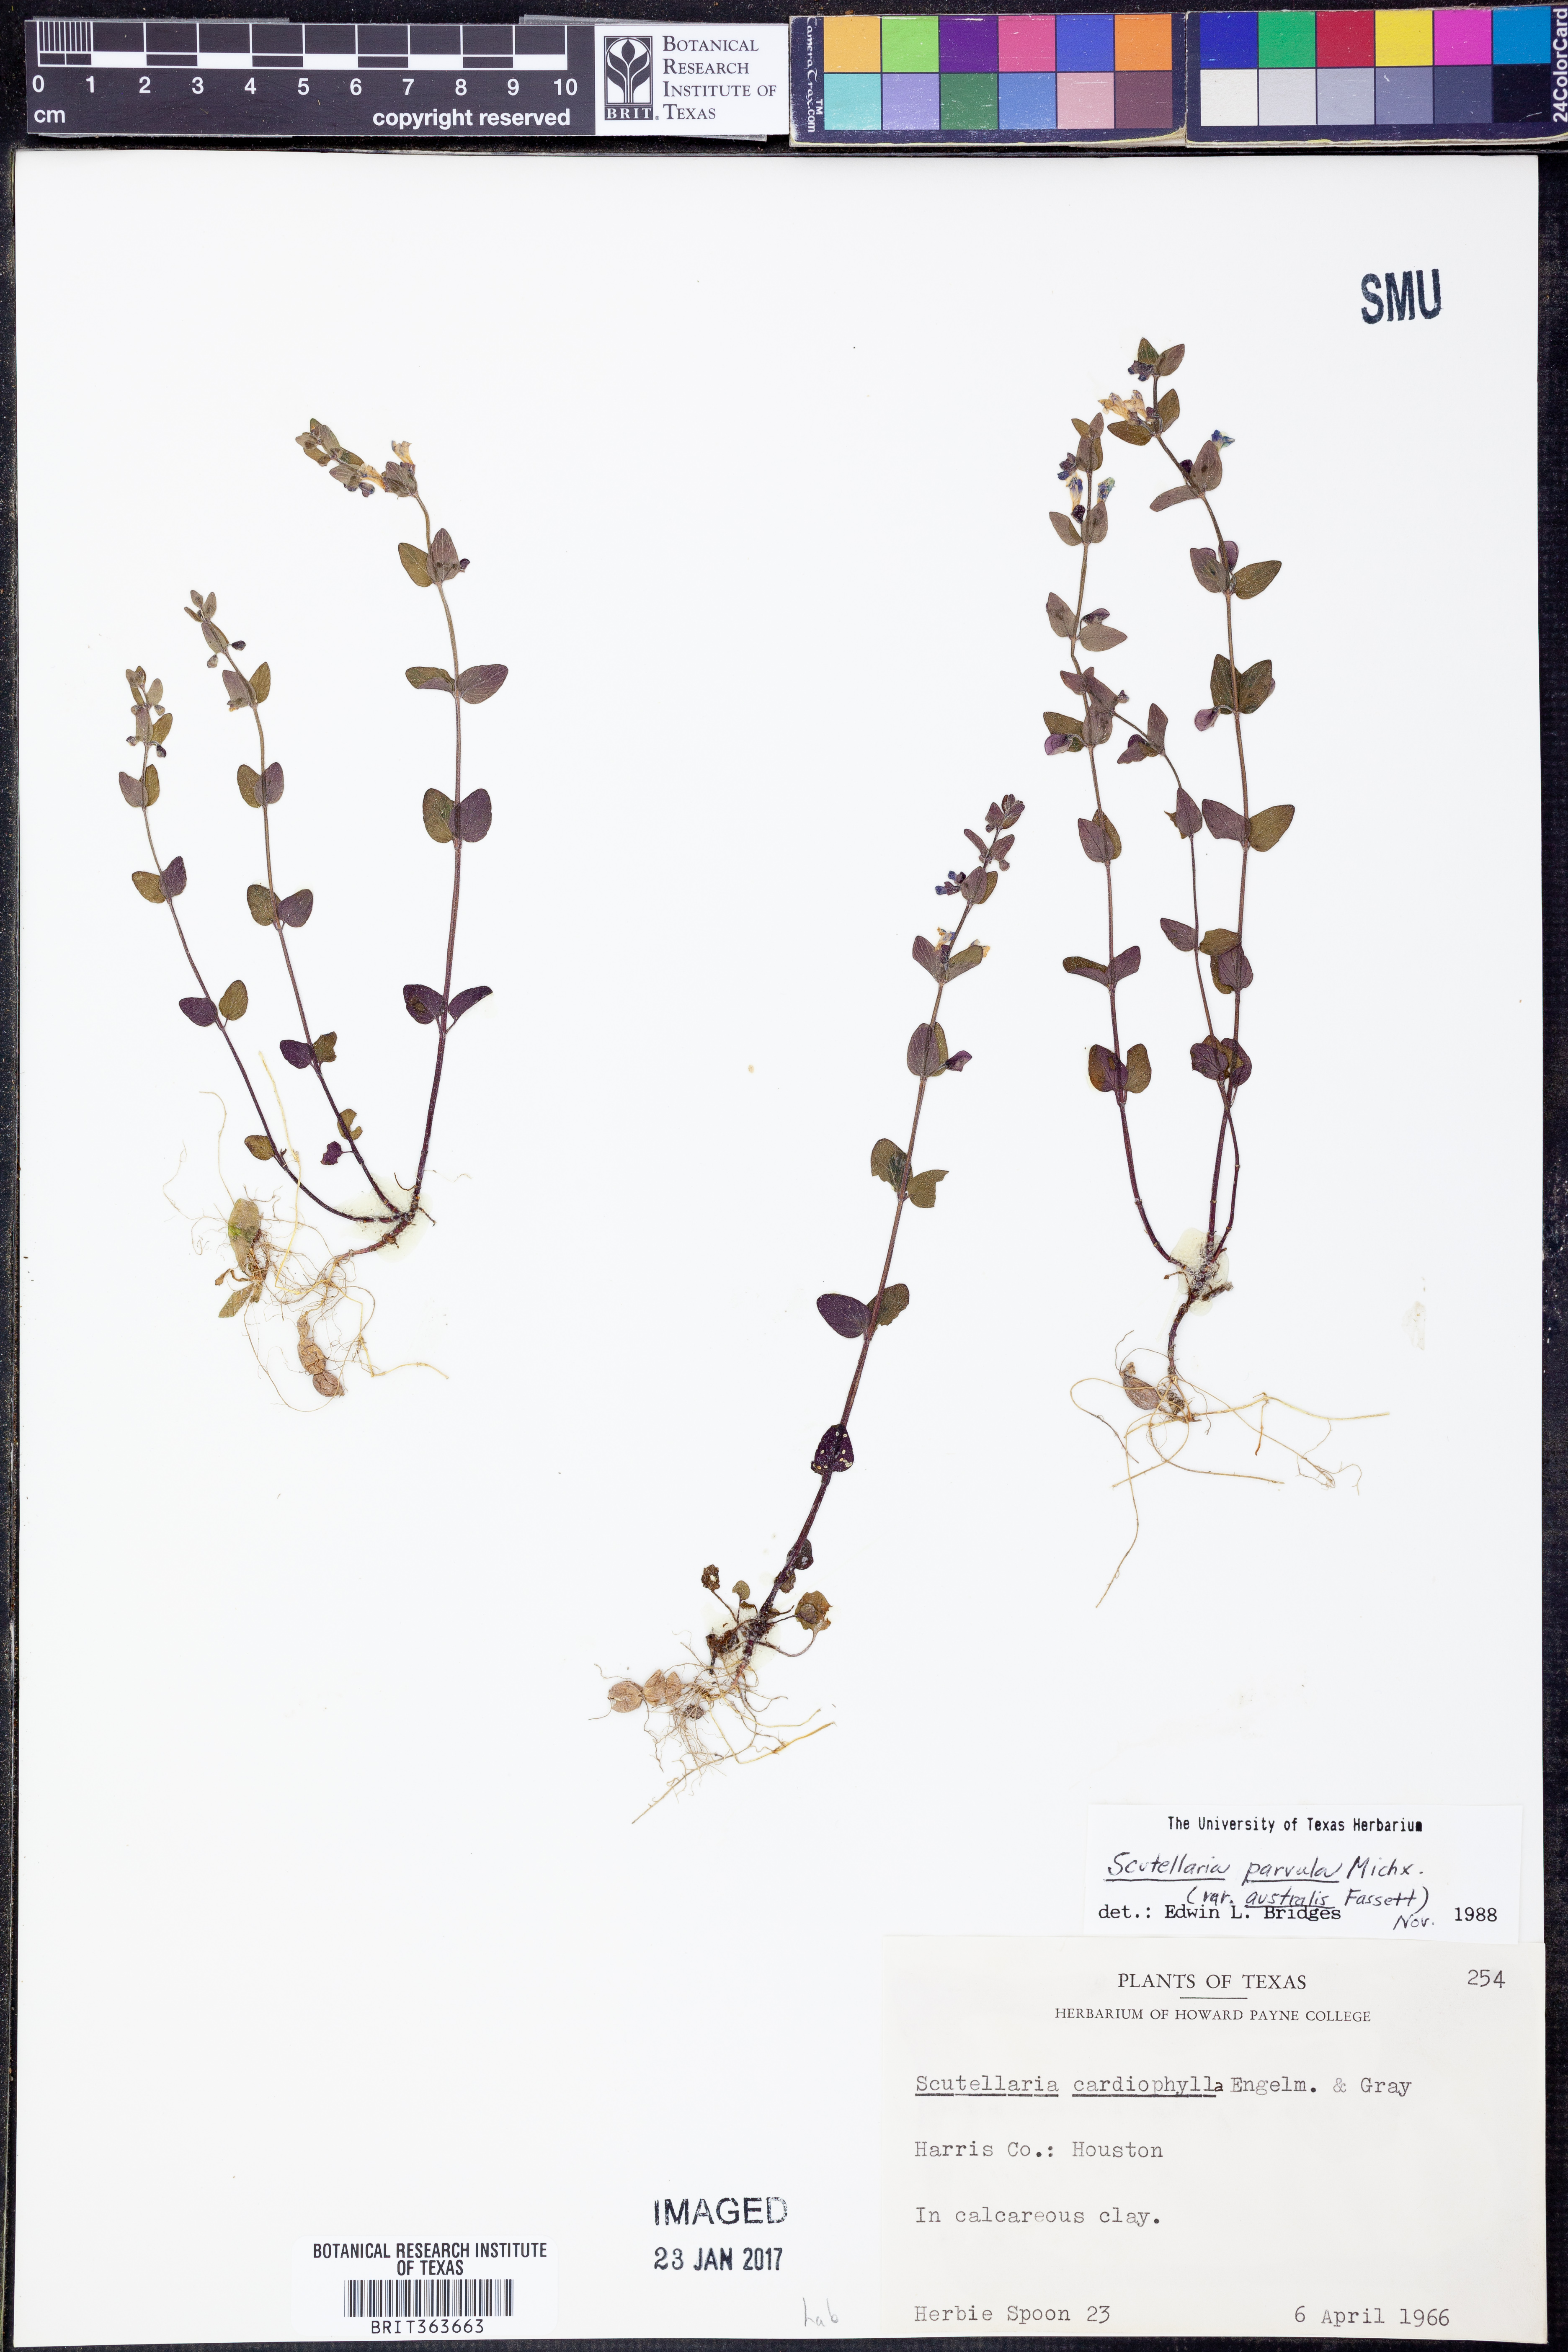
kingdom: Plantae
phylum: Tracheophyta
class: Magnoliopsida
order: Lamiales
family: Lamiaceae
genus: Scutellaria
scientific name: Scutellaria parvula
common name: Little scullcap
